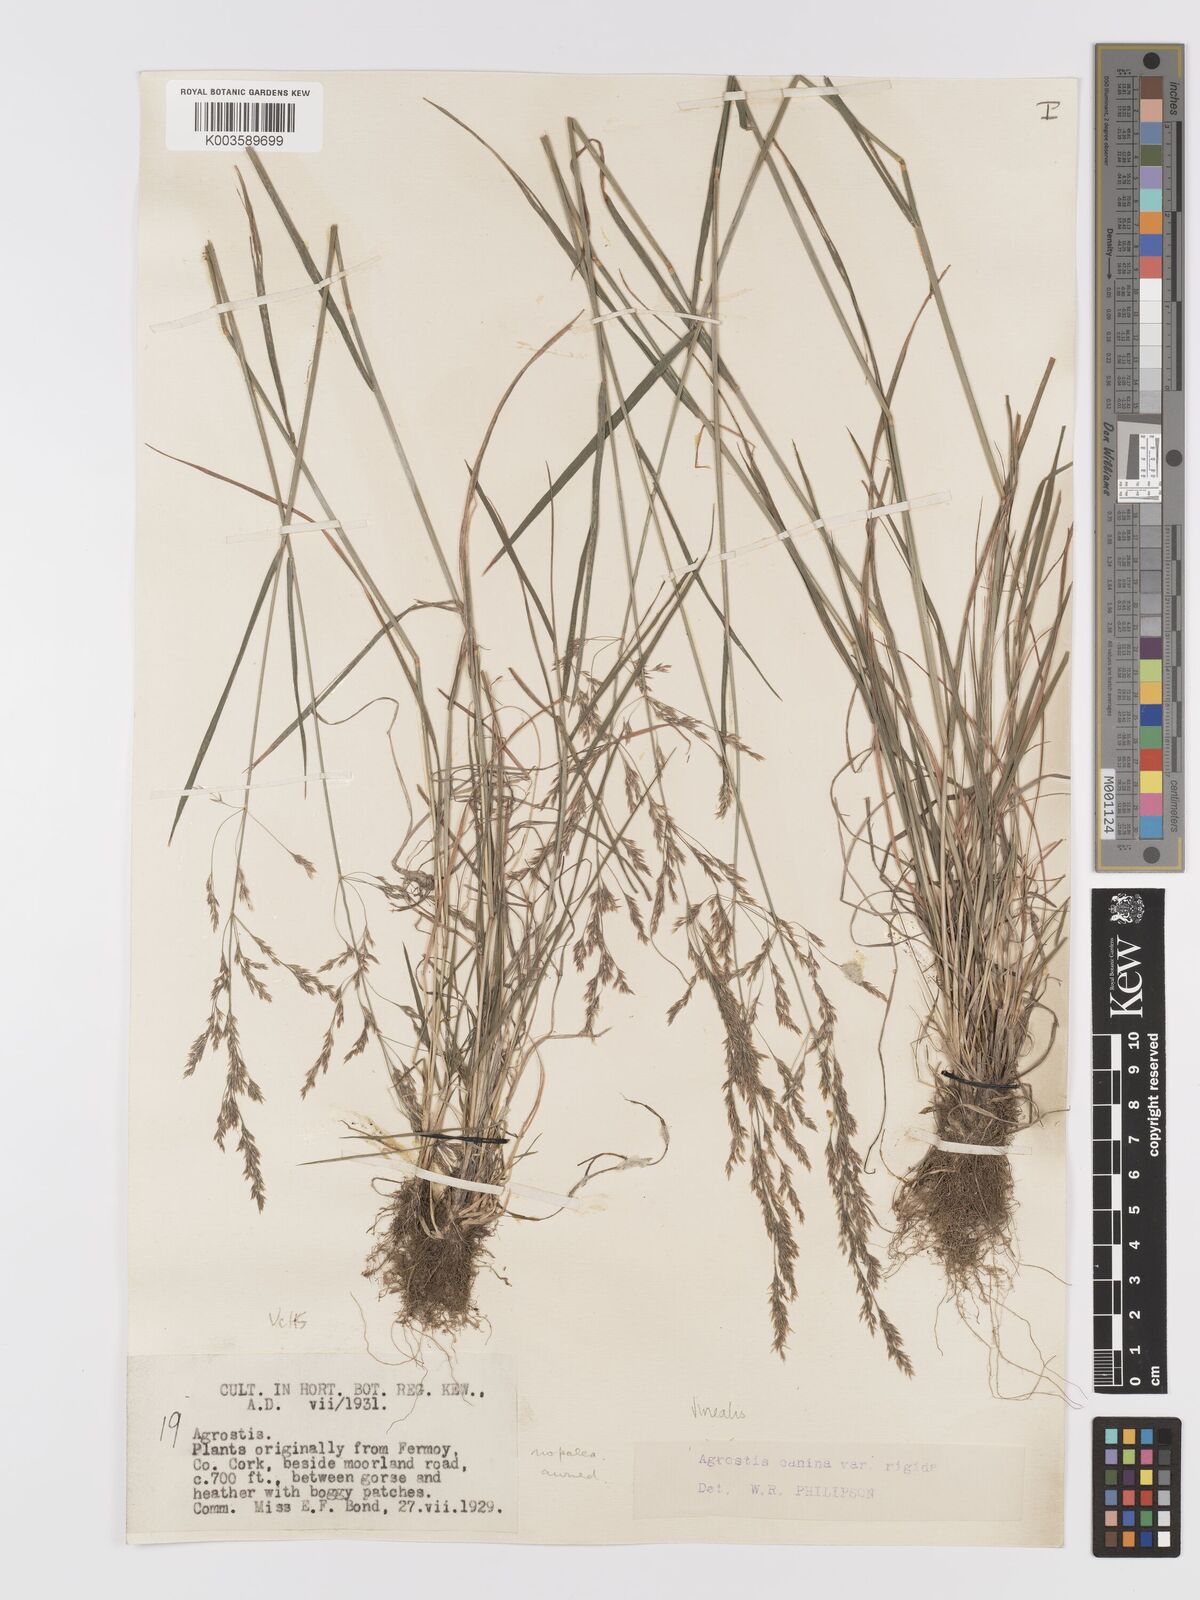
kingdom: Plantae
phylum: Tracheophyta
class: Liliopsida
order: Poales
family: Poaceae
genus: Agrostis
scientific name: Agrostis
